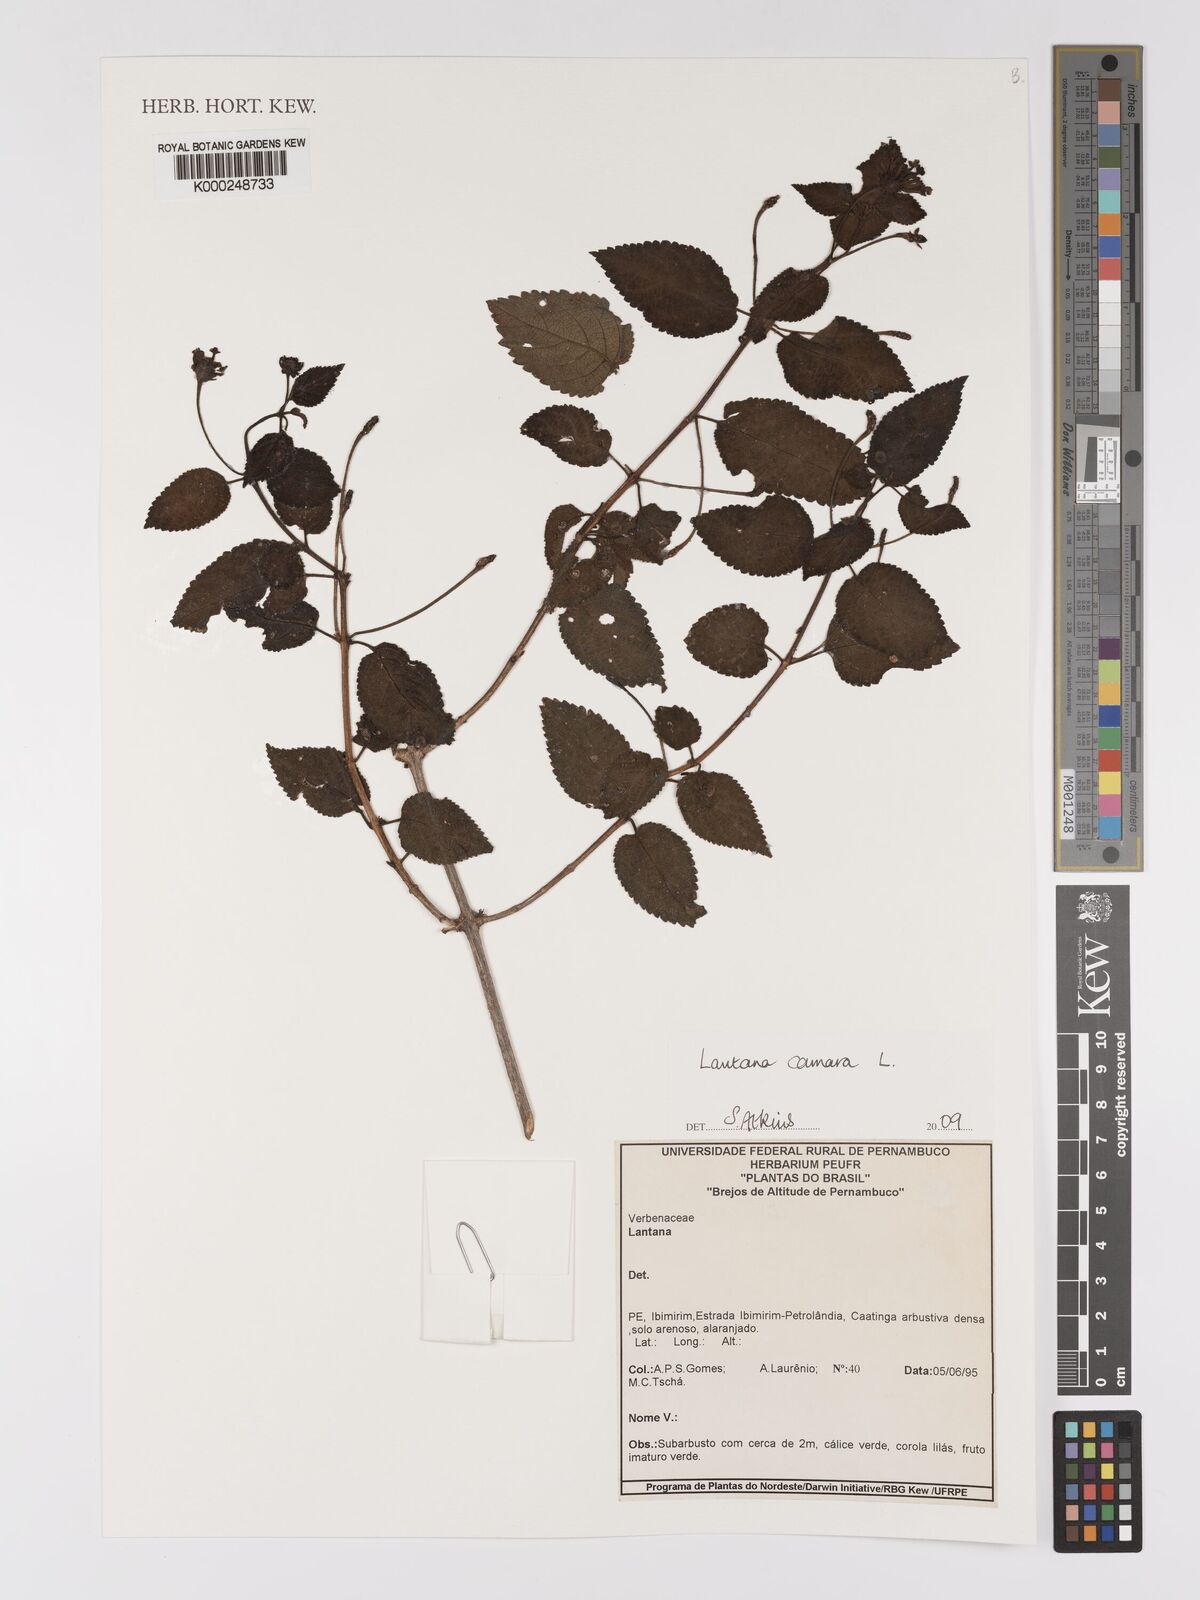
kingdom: Plantae
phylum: Tracheophyta
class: Magnoliopsida
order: Lamiales
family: Verbenaceae
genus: Lantana
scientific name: Lantana camara
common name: Lantana
